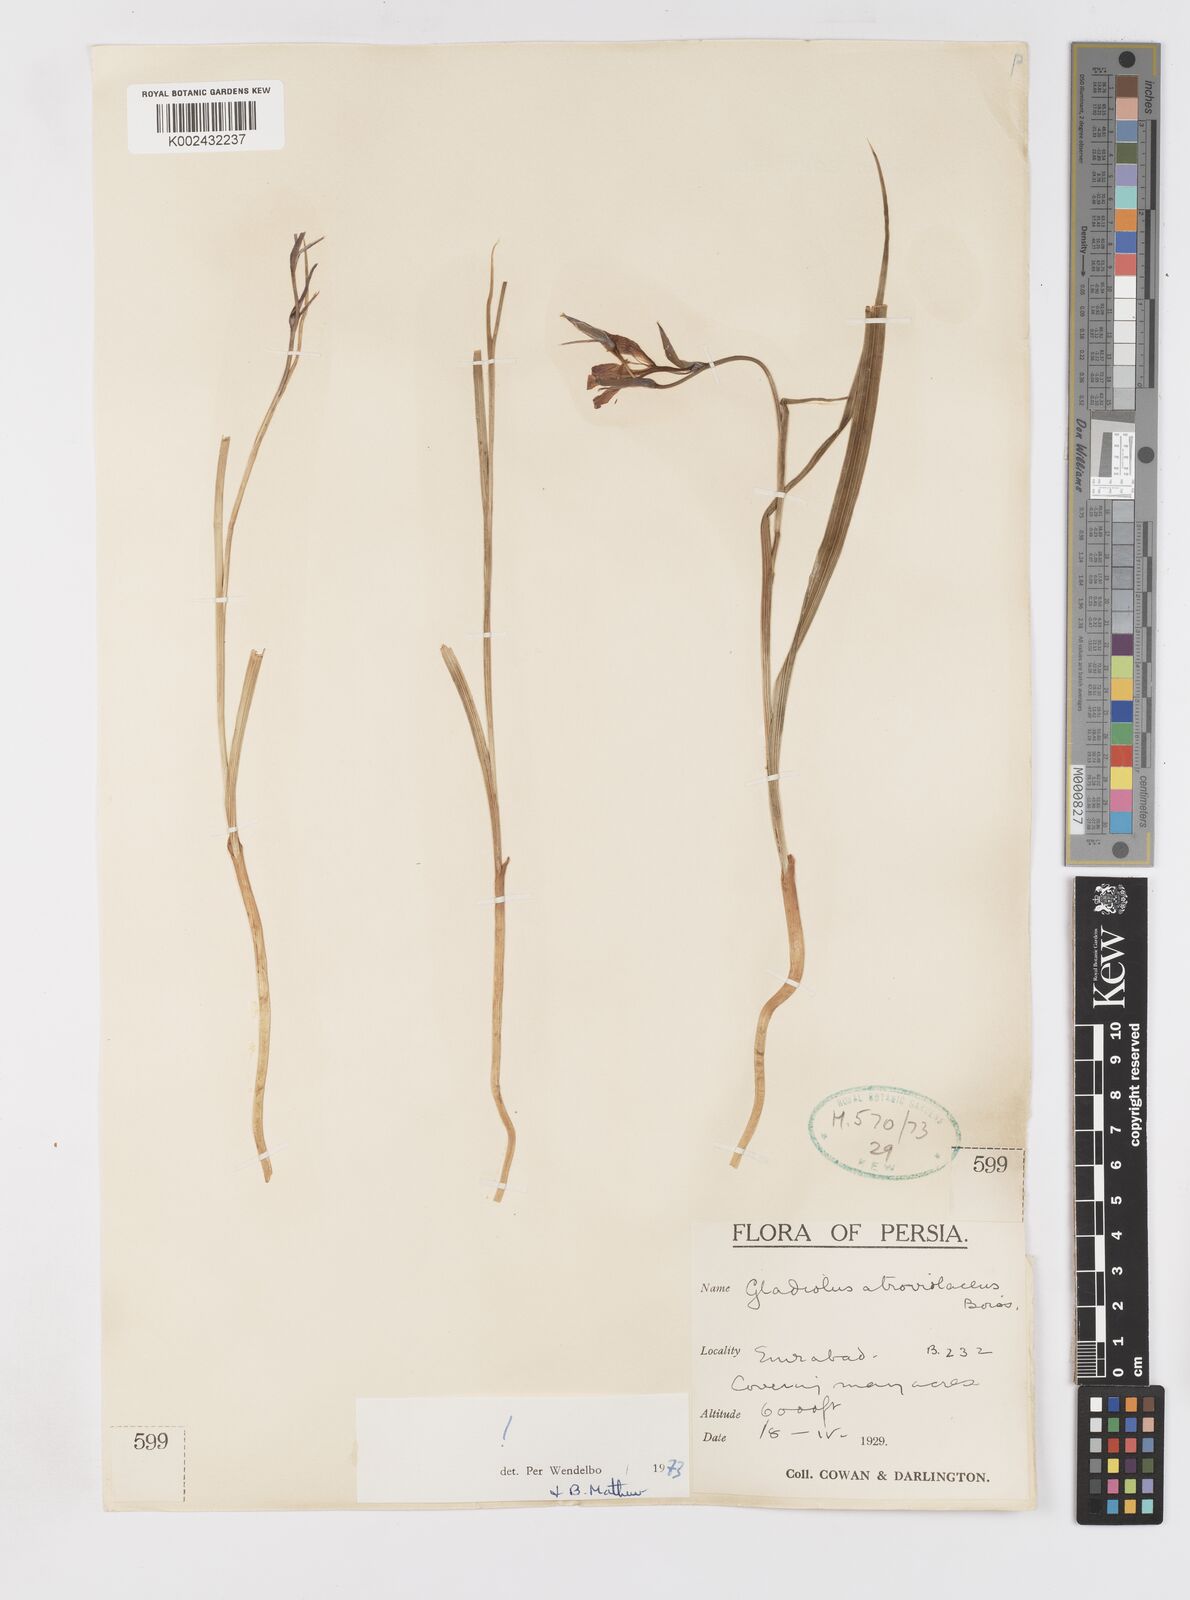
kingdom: Plantae
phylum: Tracheophyta
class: Liliopsida
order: Asparagales
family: Iridaceae
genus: Gladiolus
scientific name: Gladiolus atroviolaceus
